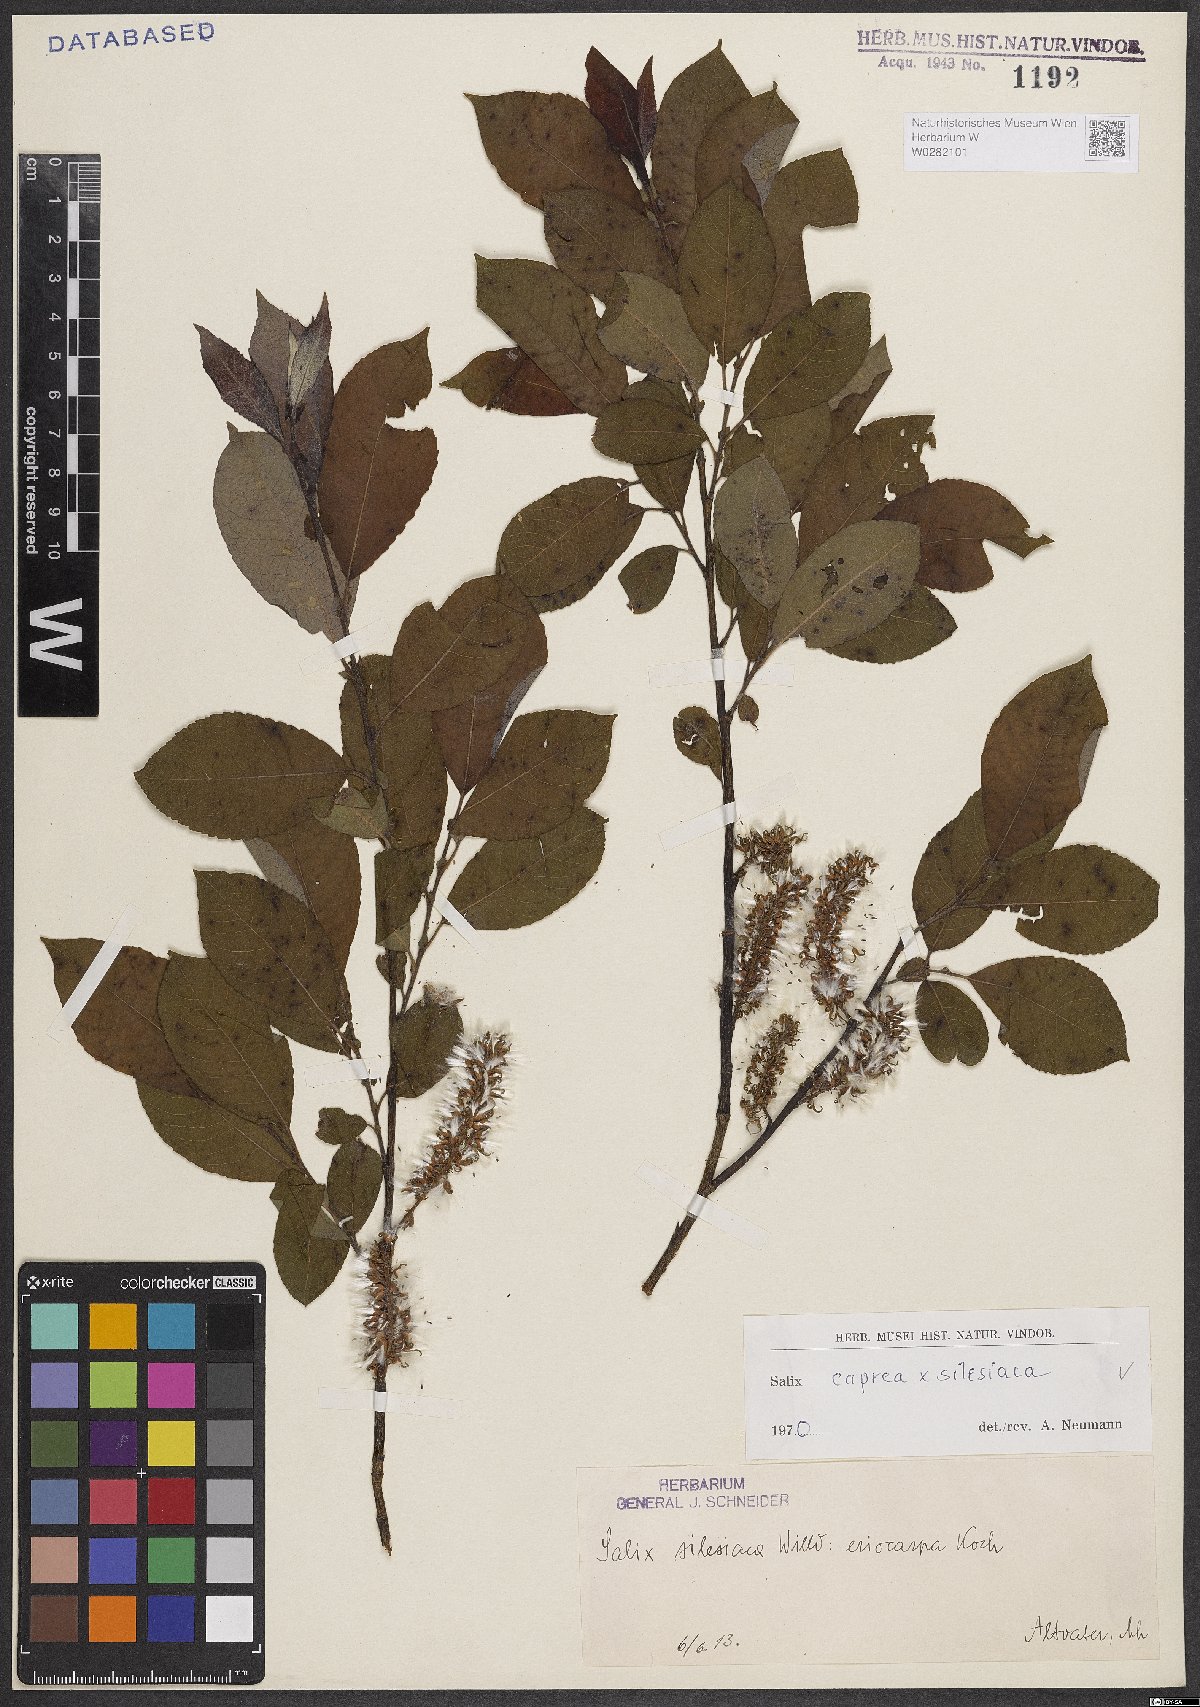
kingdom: Plantae
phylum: Tracheophyta
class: Magnoliopsida
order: Malpighiales
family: Salicaceae
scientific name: Salicaceae
